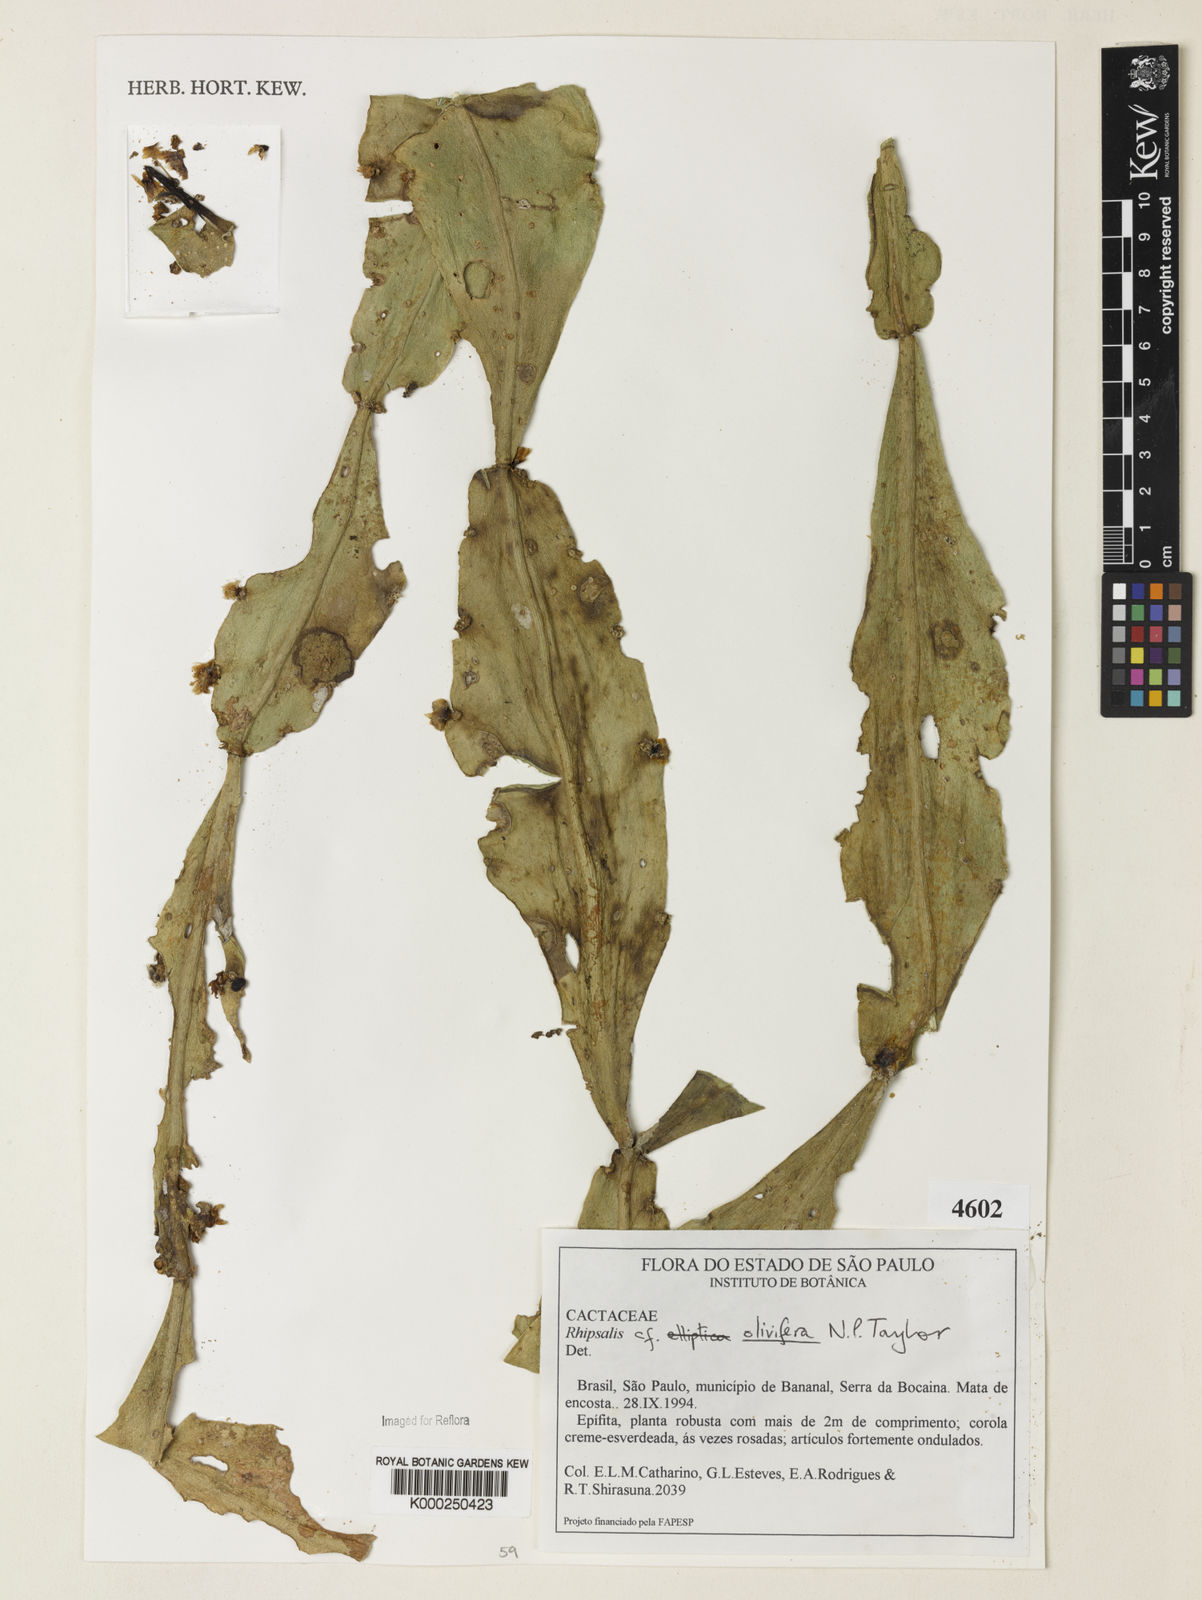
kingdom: Plantae
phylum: Tracheophyta
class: Magnoliopsida
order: Caryophyllales
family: Cactaceae
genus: Rhipsalis
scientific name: Rhipsalis olivifera
